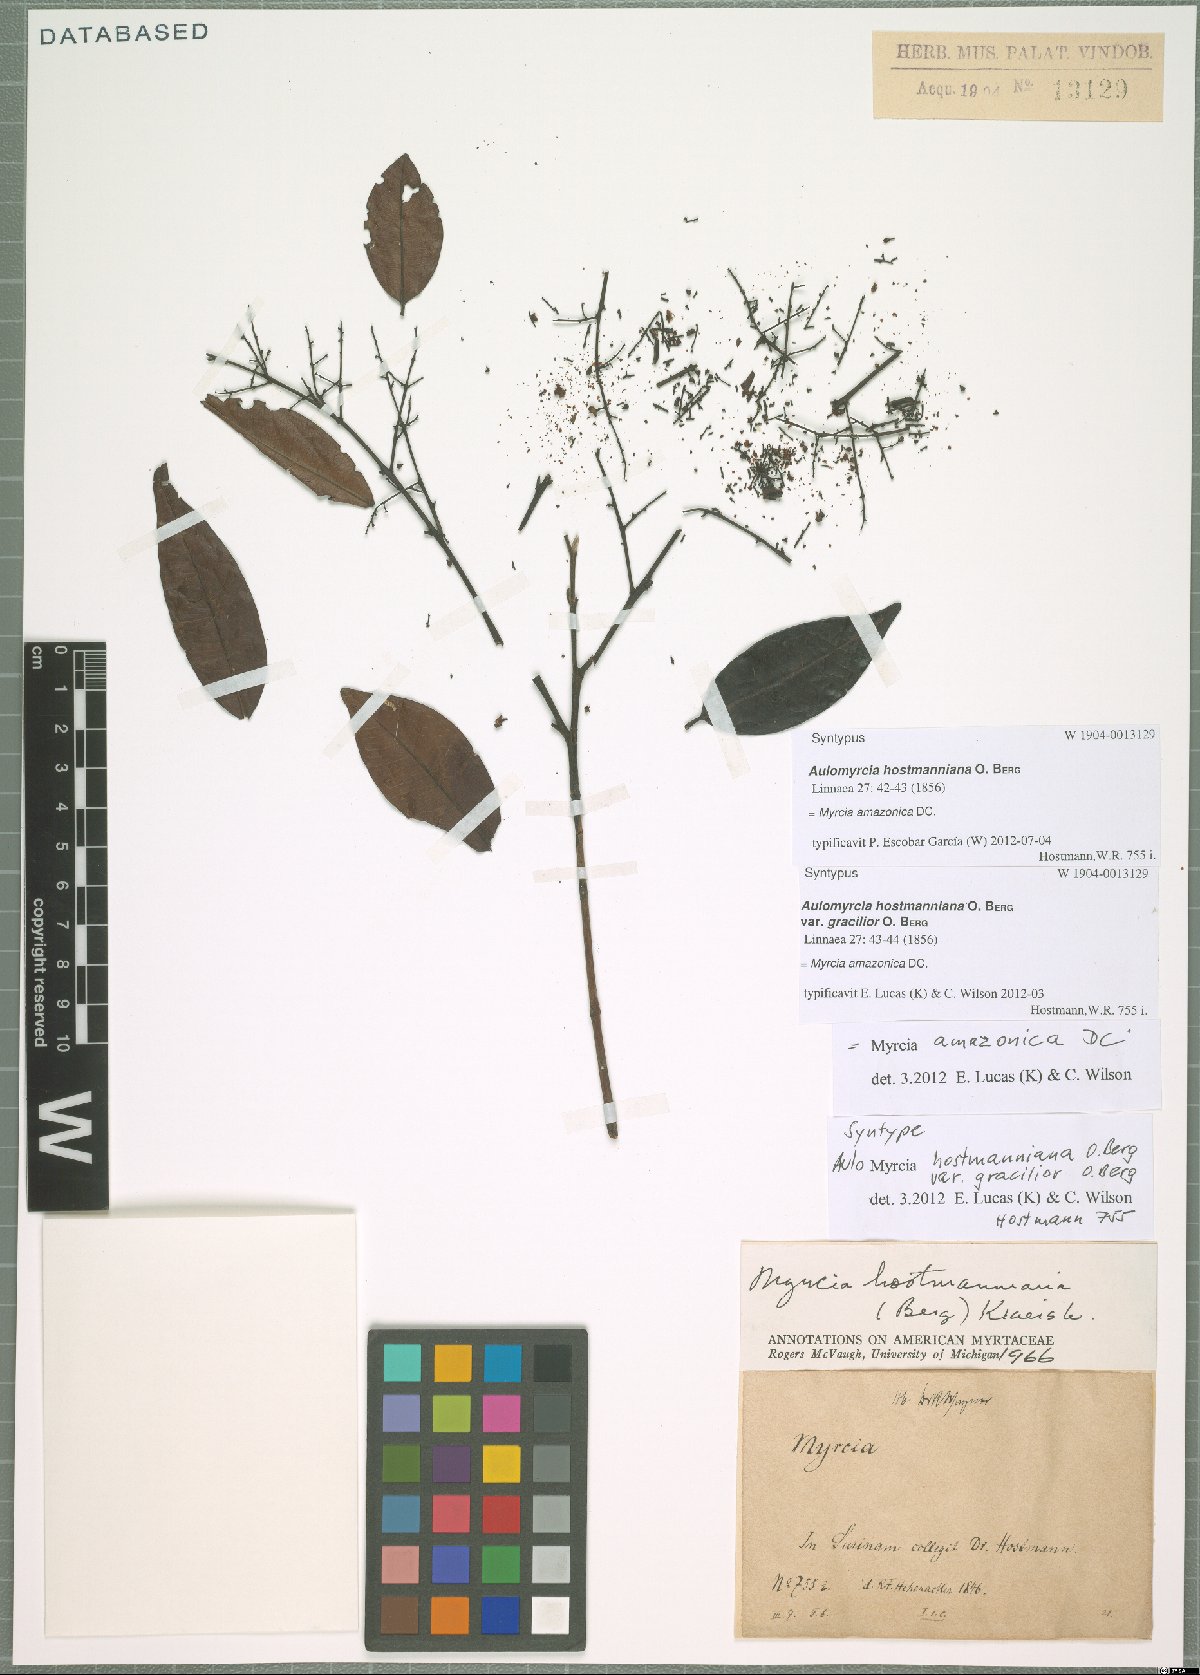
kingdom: Plantae
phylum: Tracheophyta
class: Magnoliopsida
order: Myrtales
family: Myrtaceae
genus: Myrcia
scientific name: Myrcia amazonica
